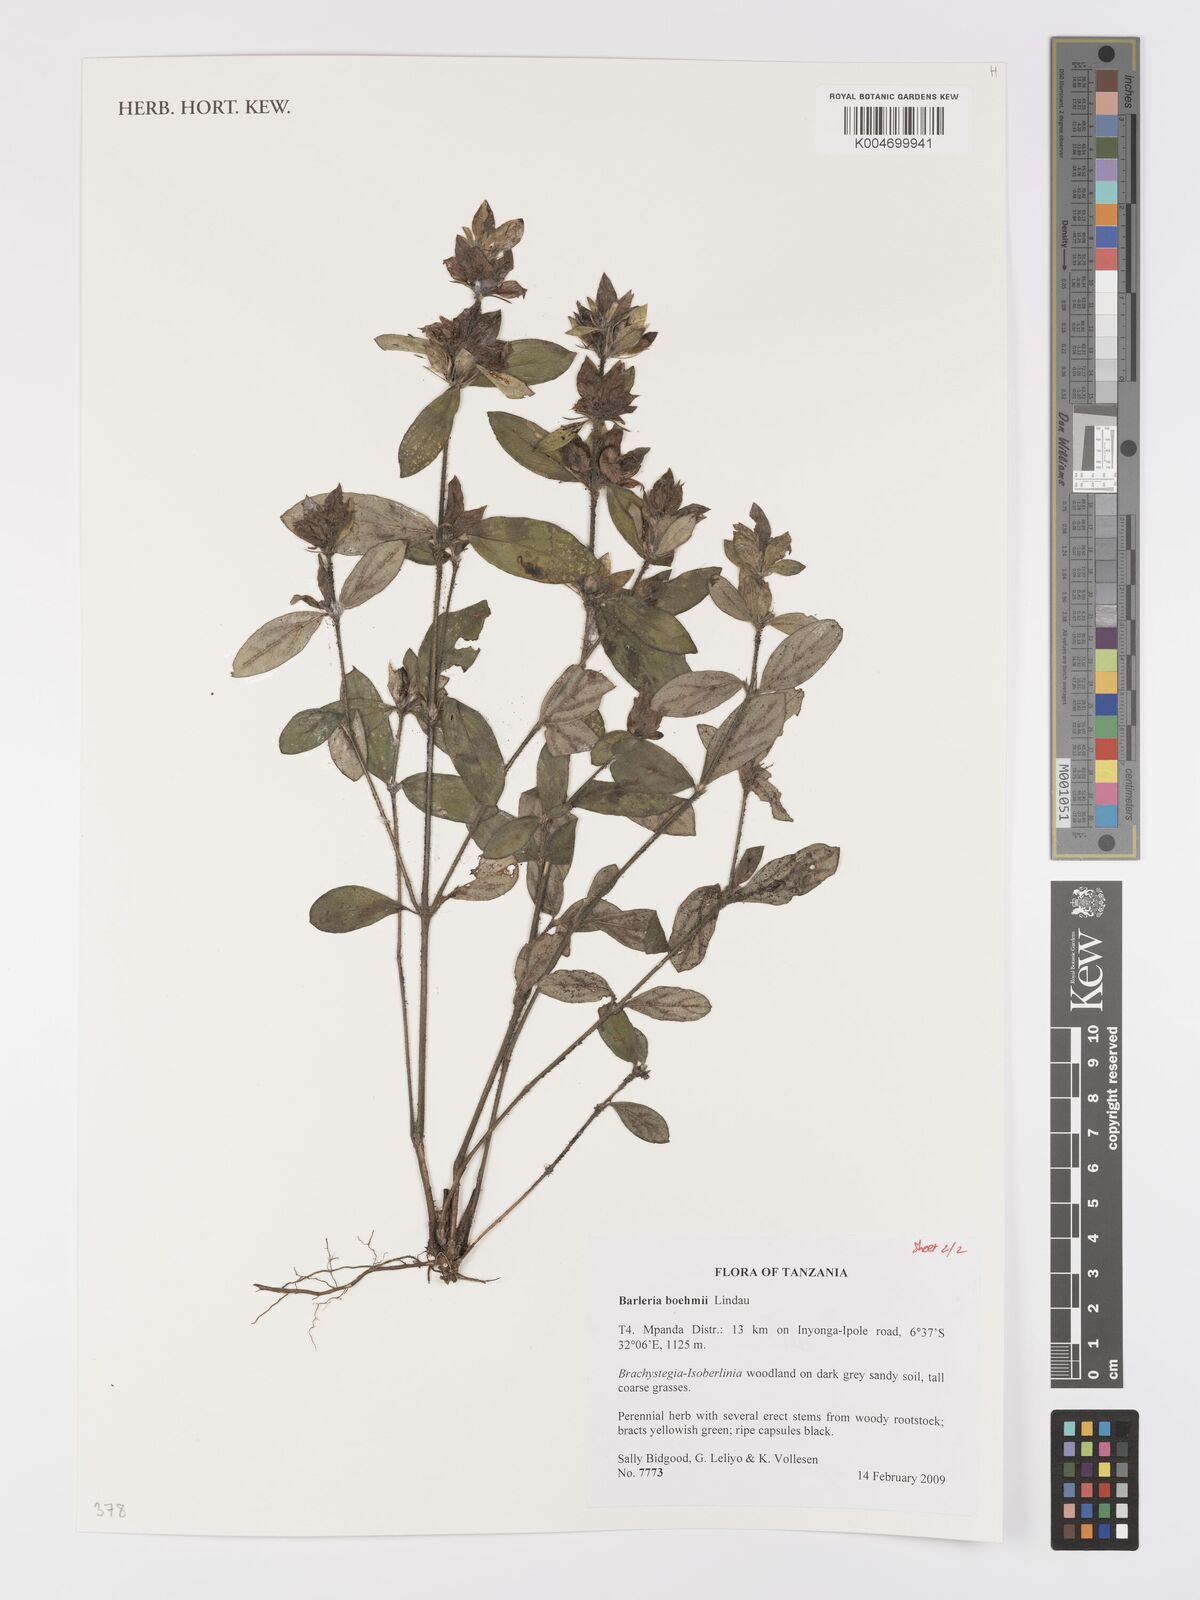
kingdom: Plantae
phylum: Tracheophyta
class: Magnoliopsida
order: Lamiales
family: Acanthaceae
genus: Barleria
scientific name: Barleria boehmii
